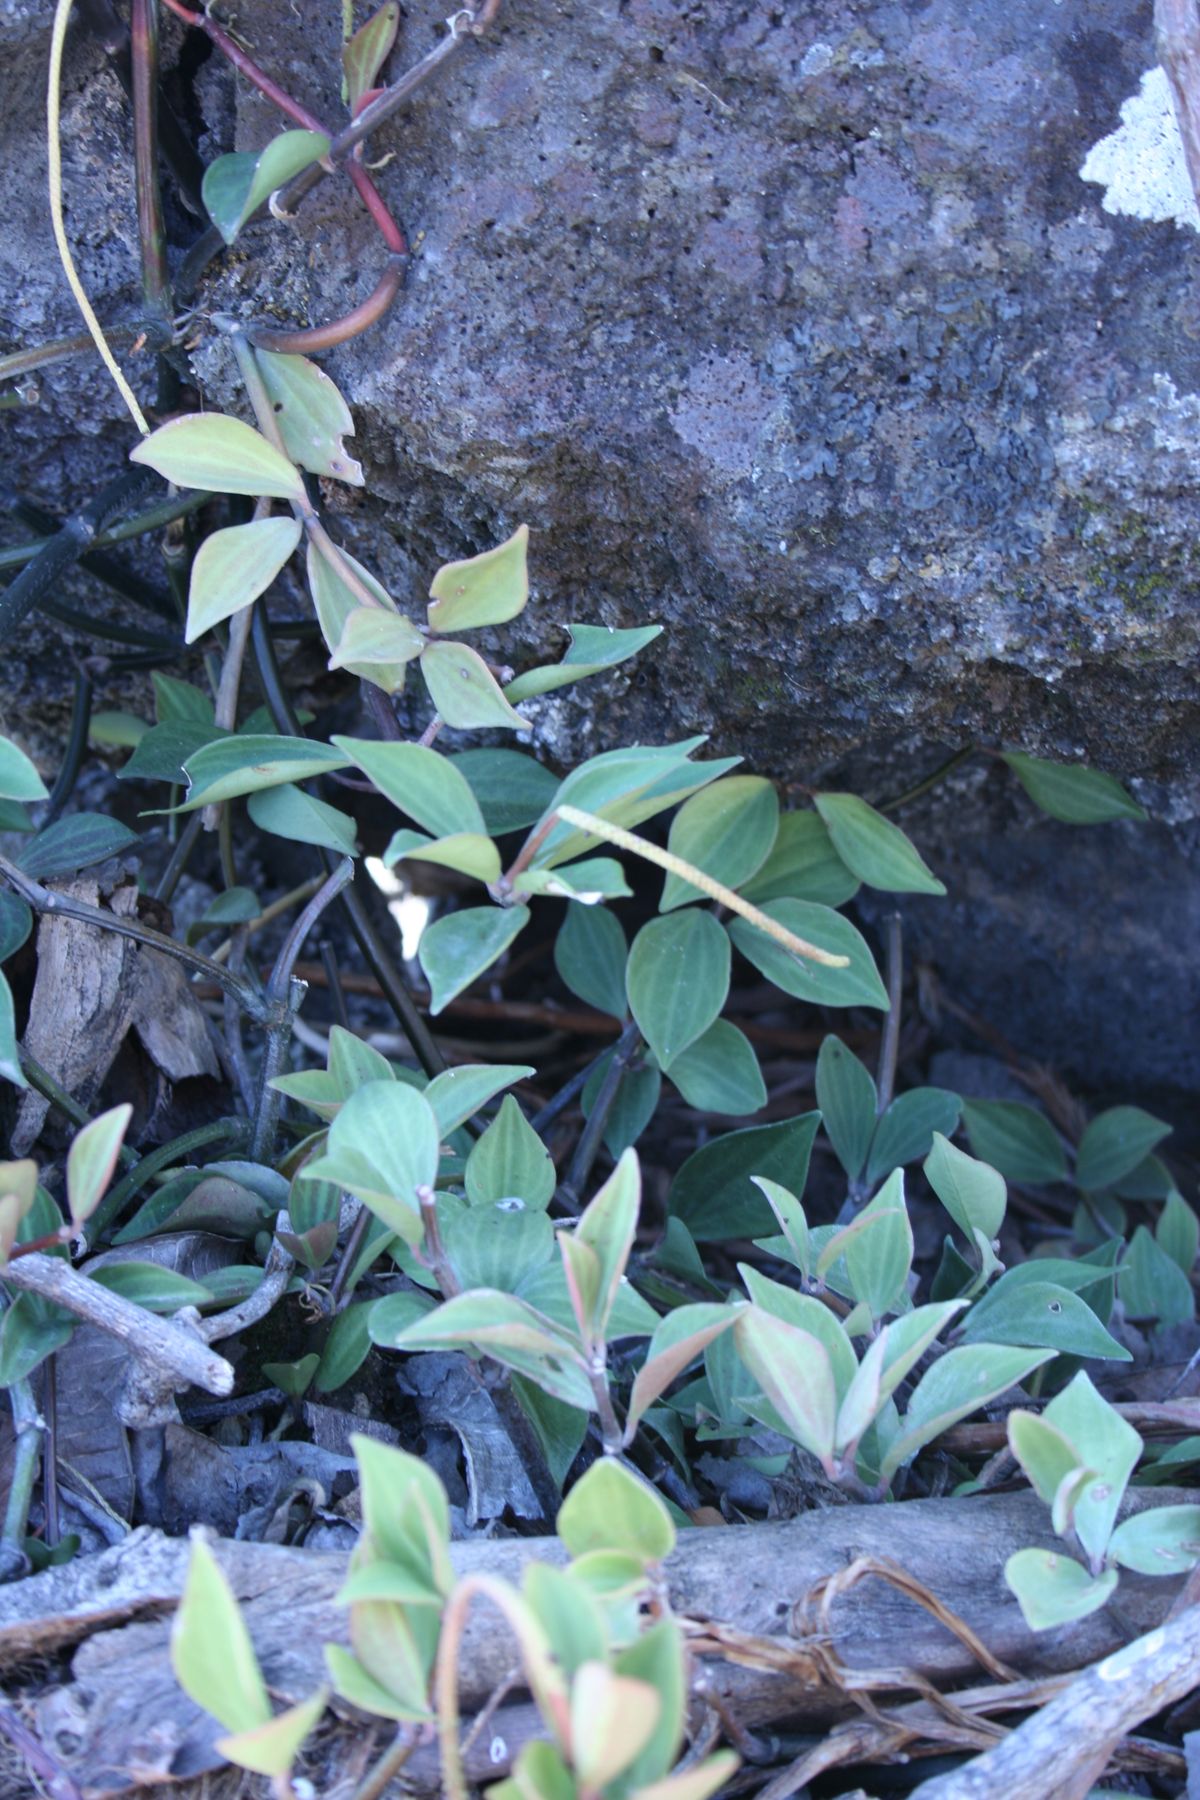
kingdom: Plantae
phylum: Tracheophyta
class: Magnoliopsida
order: Piperales
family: Piperaceae
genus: Peperomia
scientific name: Peperomia pseudopereskiifolia
